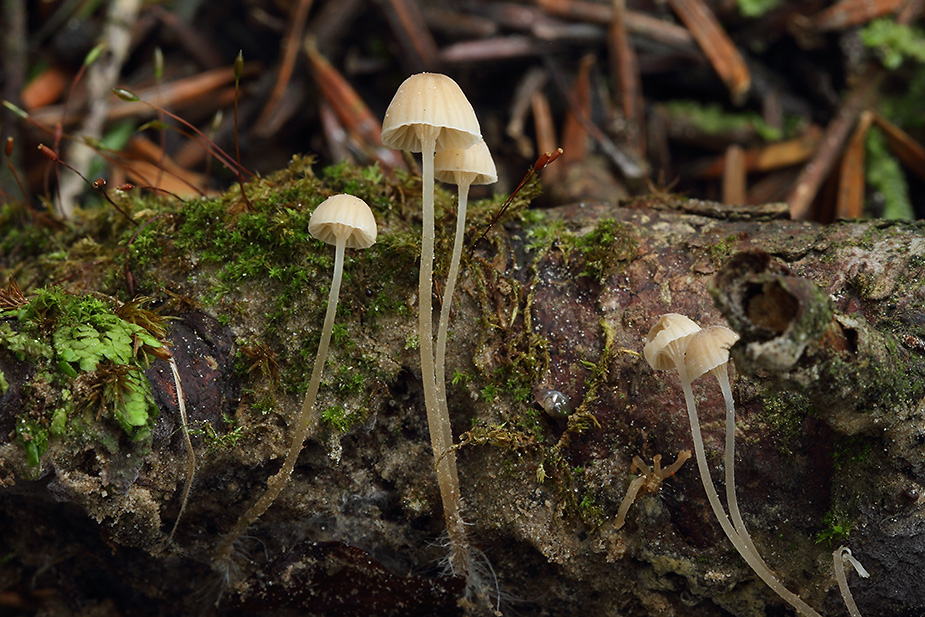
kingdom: Fungi
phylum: Basidiomycota
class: Agaricomycetes
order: Agaricales
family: Porotheleaceae
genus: Phloeomana
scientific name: Phloeomana clavata
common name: brunbladet huesvamp
